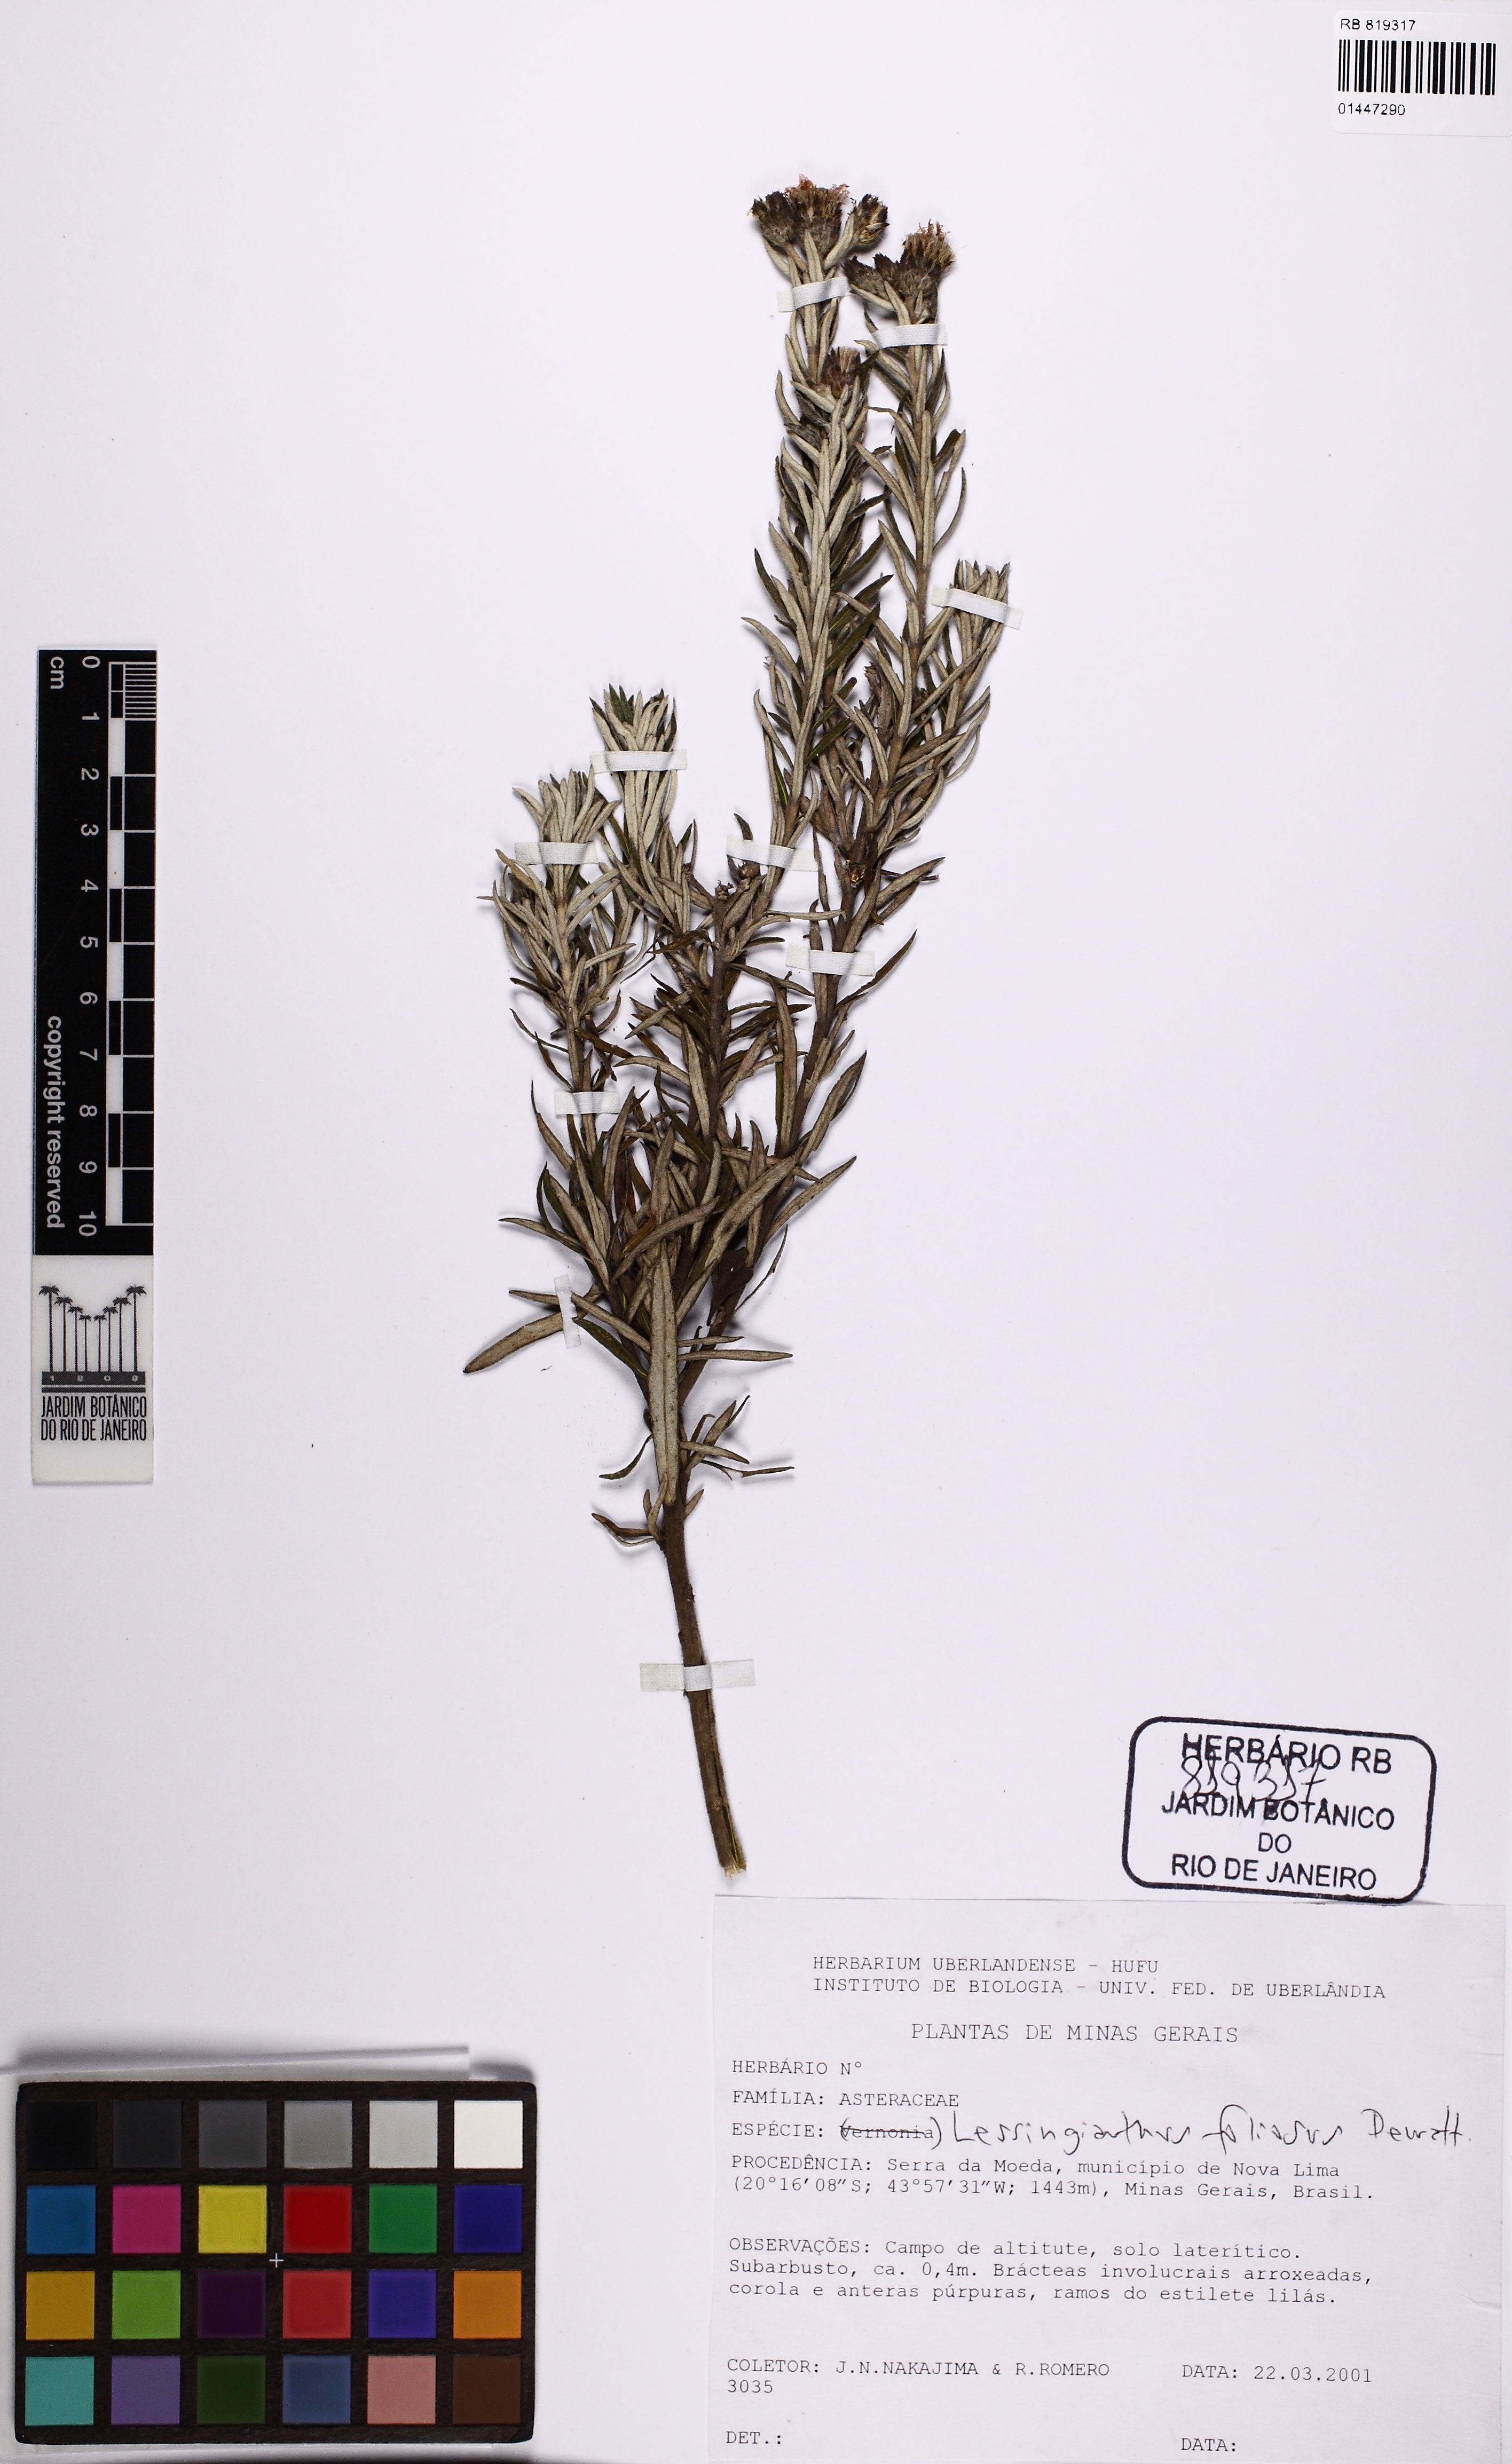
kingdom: Plantae
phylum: Tracheophyta
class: Magnoliopsida
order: Asterales
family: Asteraceae
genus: Lessingianthus
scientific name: Lessingianthus foliosus
